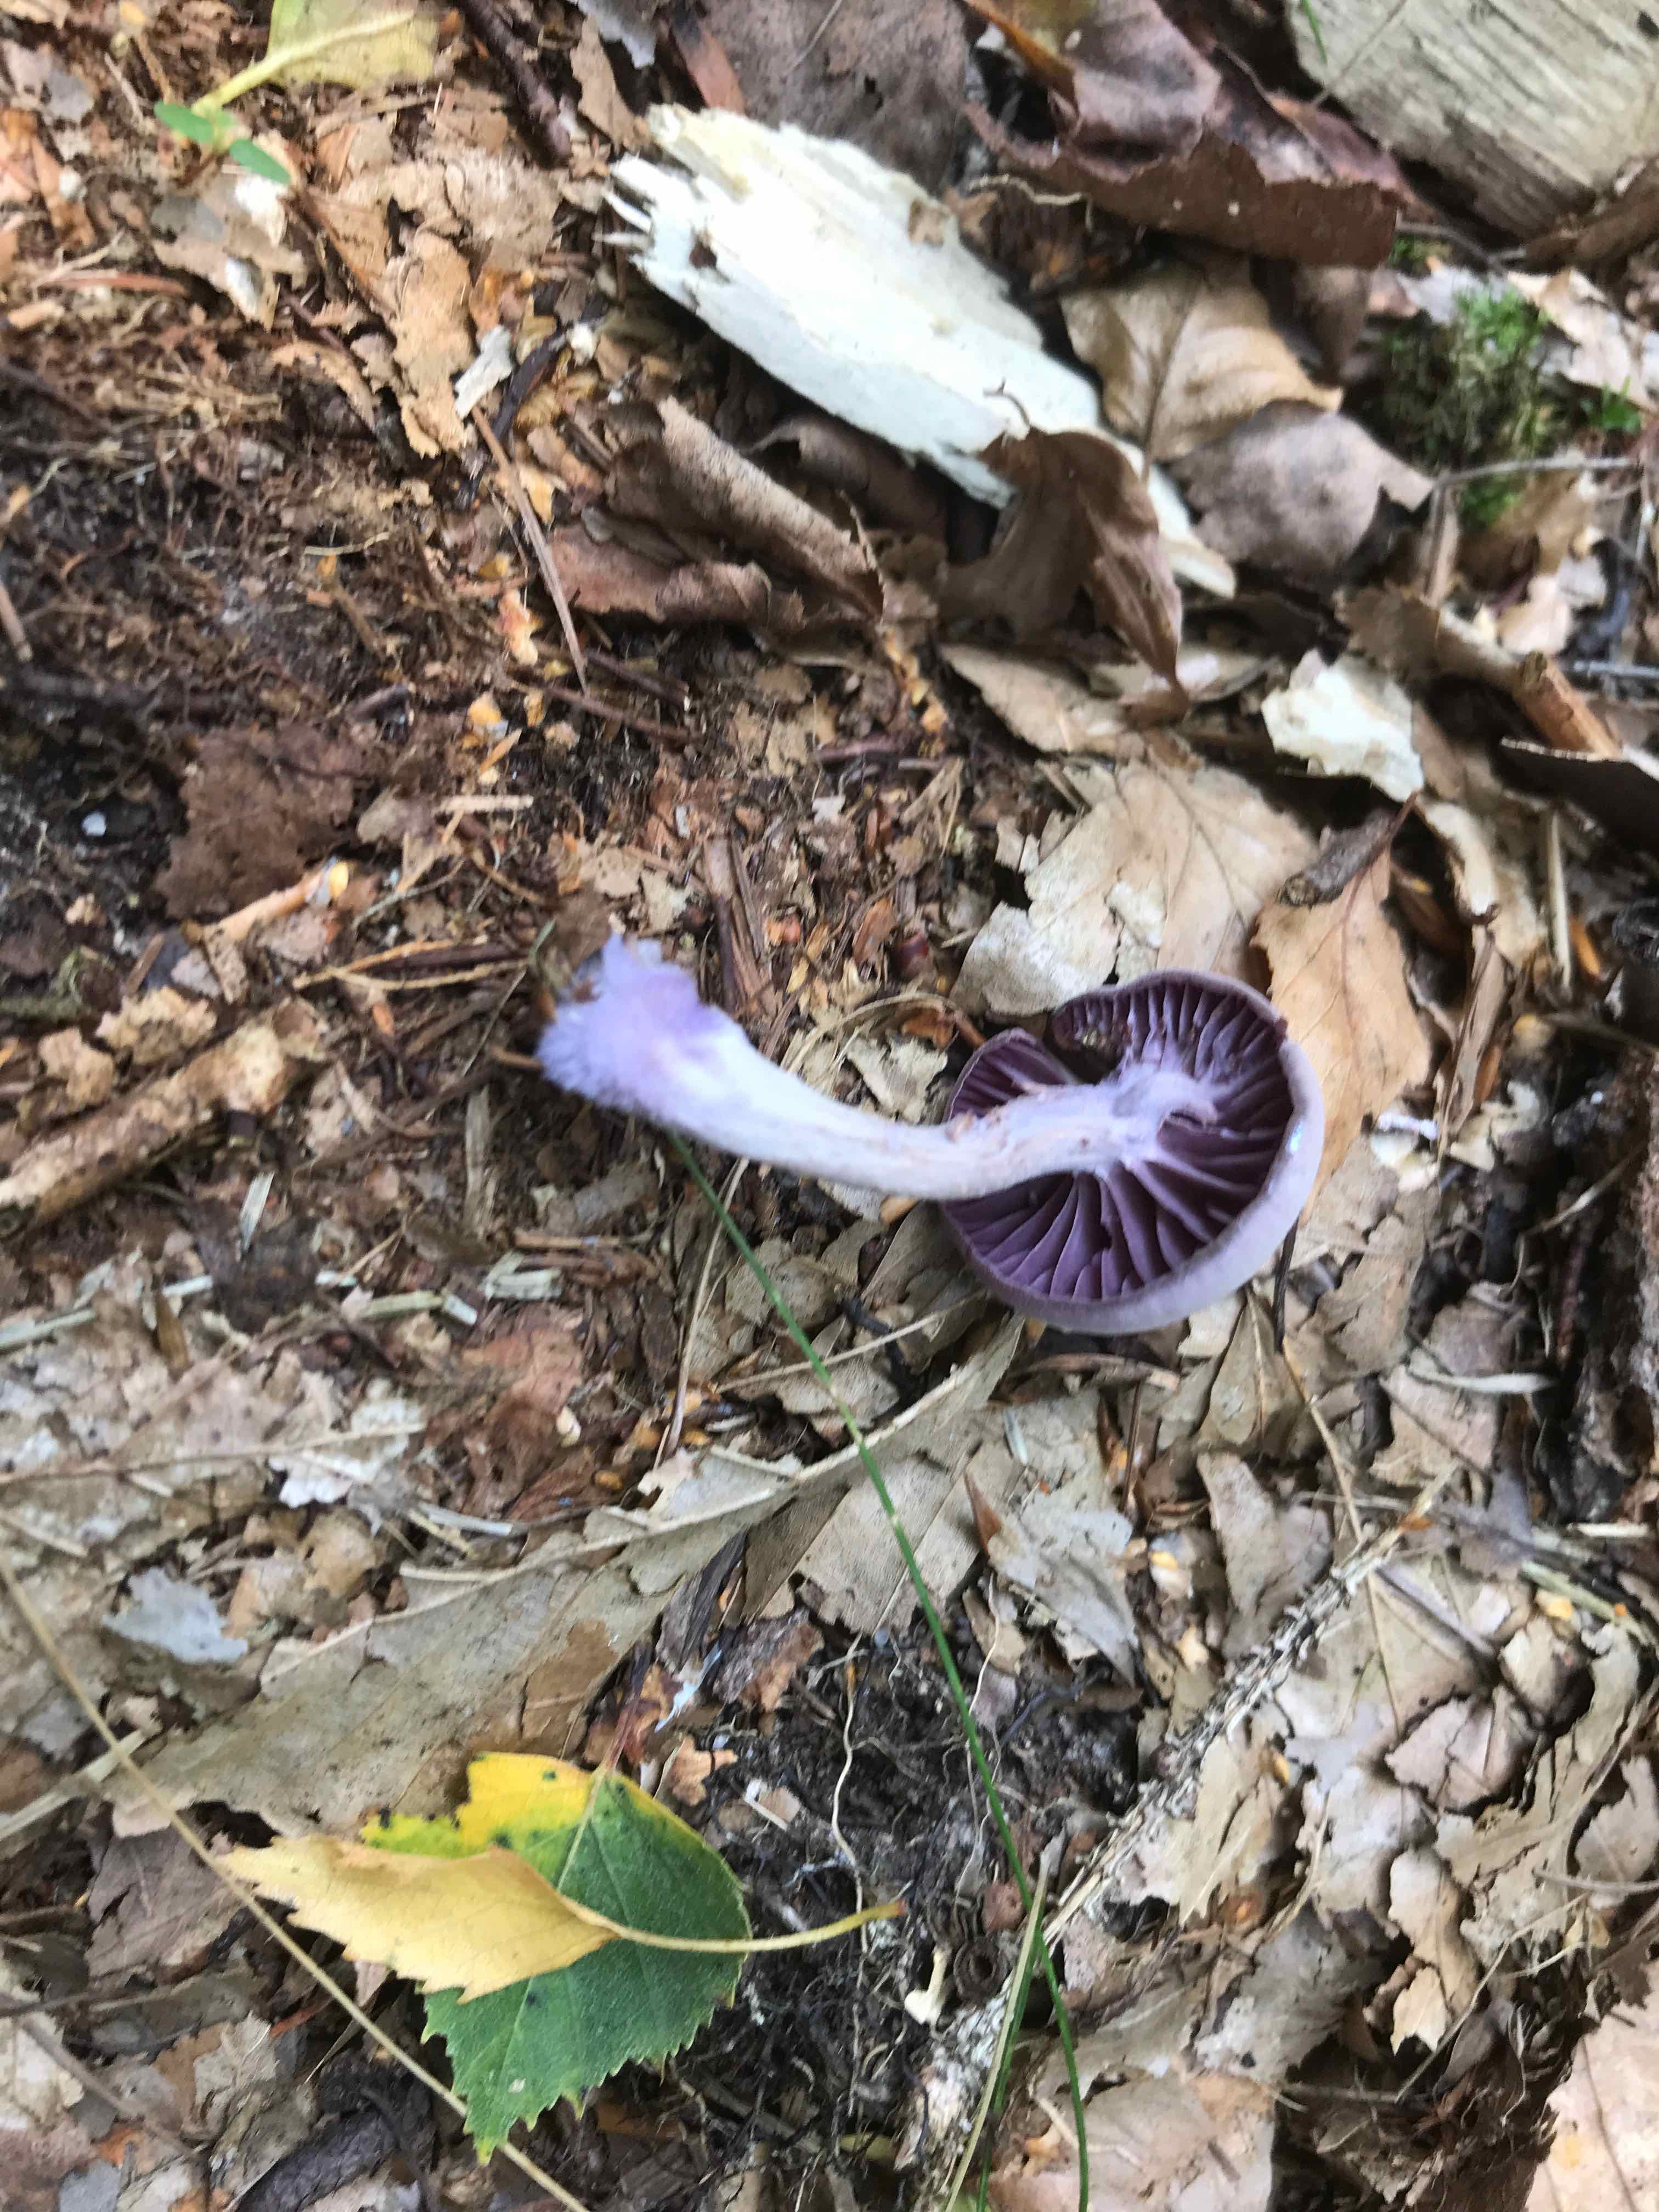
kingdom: Fungi
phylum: Basidiomycota
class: Agaricomycetes
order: Agaricales
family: Hydnangiaceae
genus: Laccaria
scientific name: Laccaria amethystina
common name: violet ametysthat
